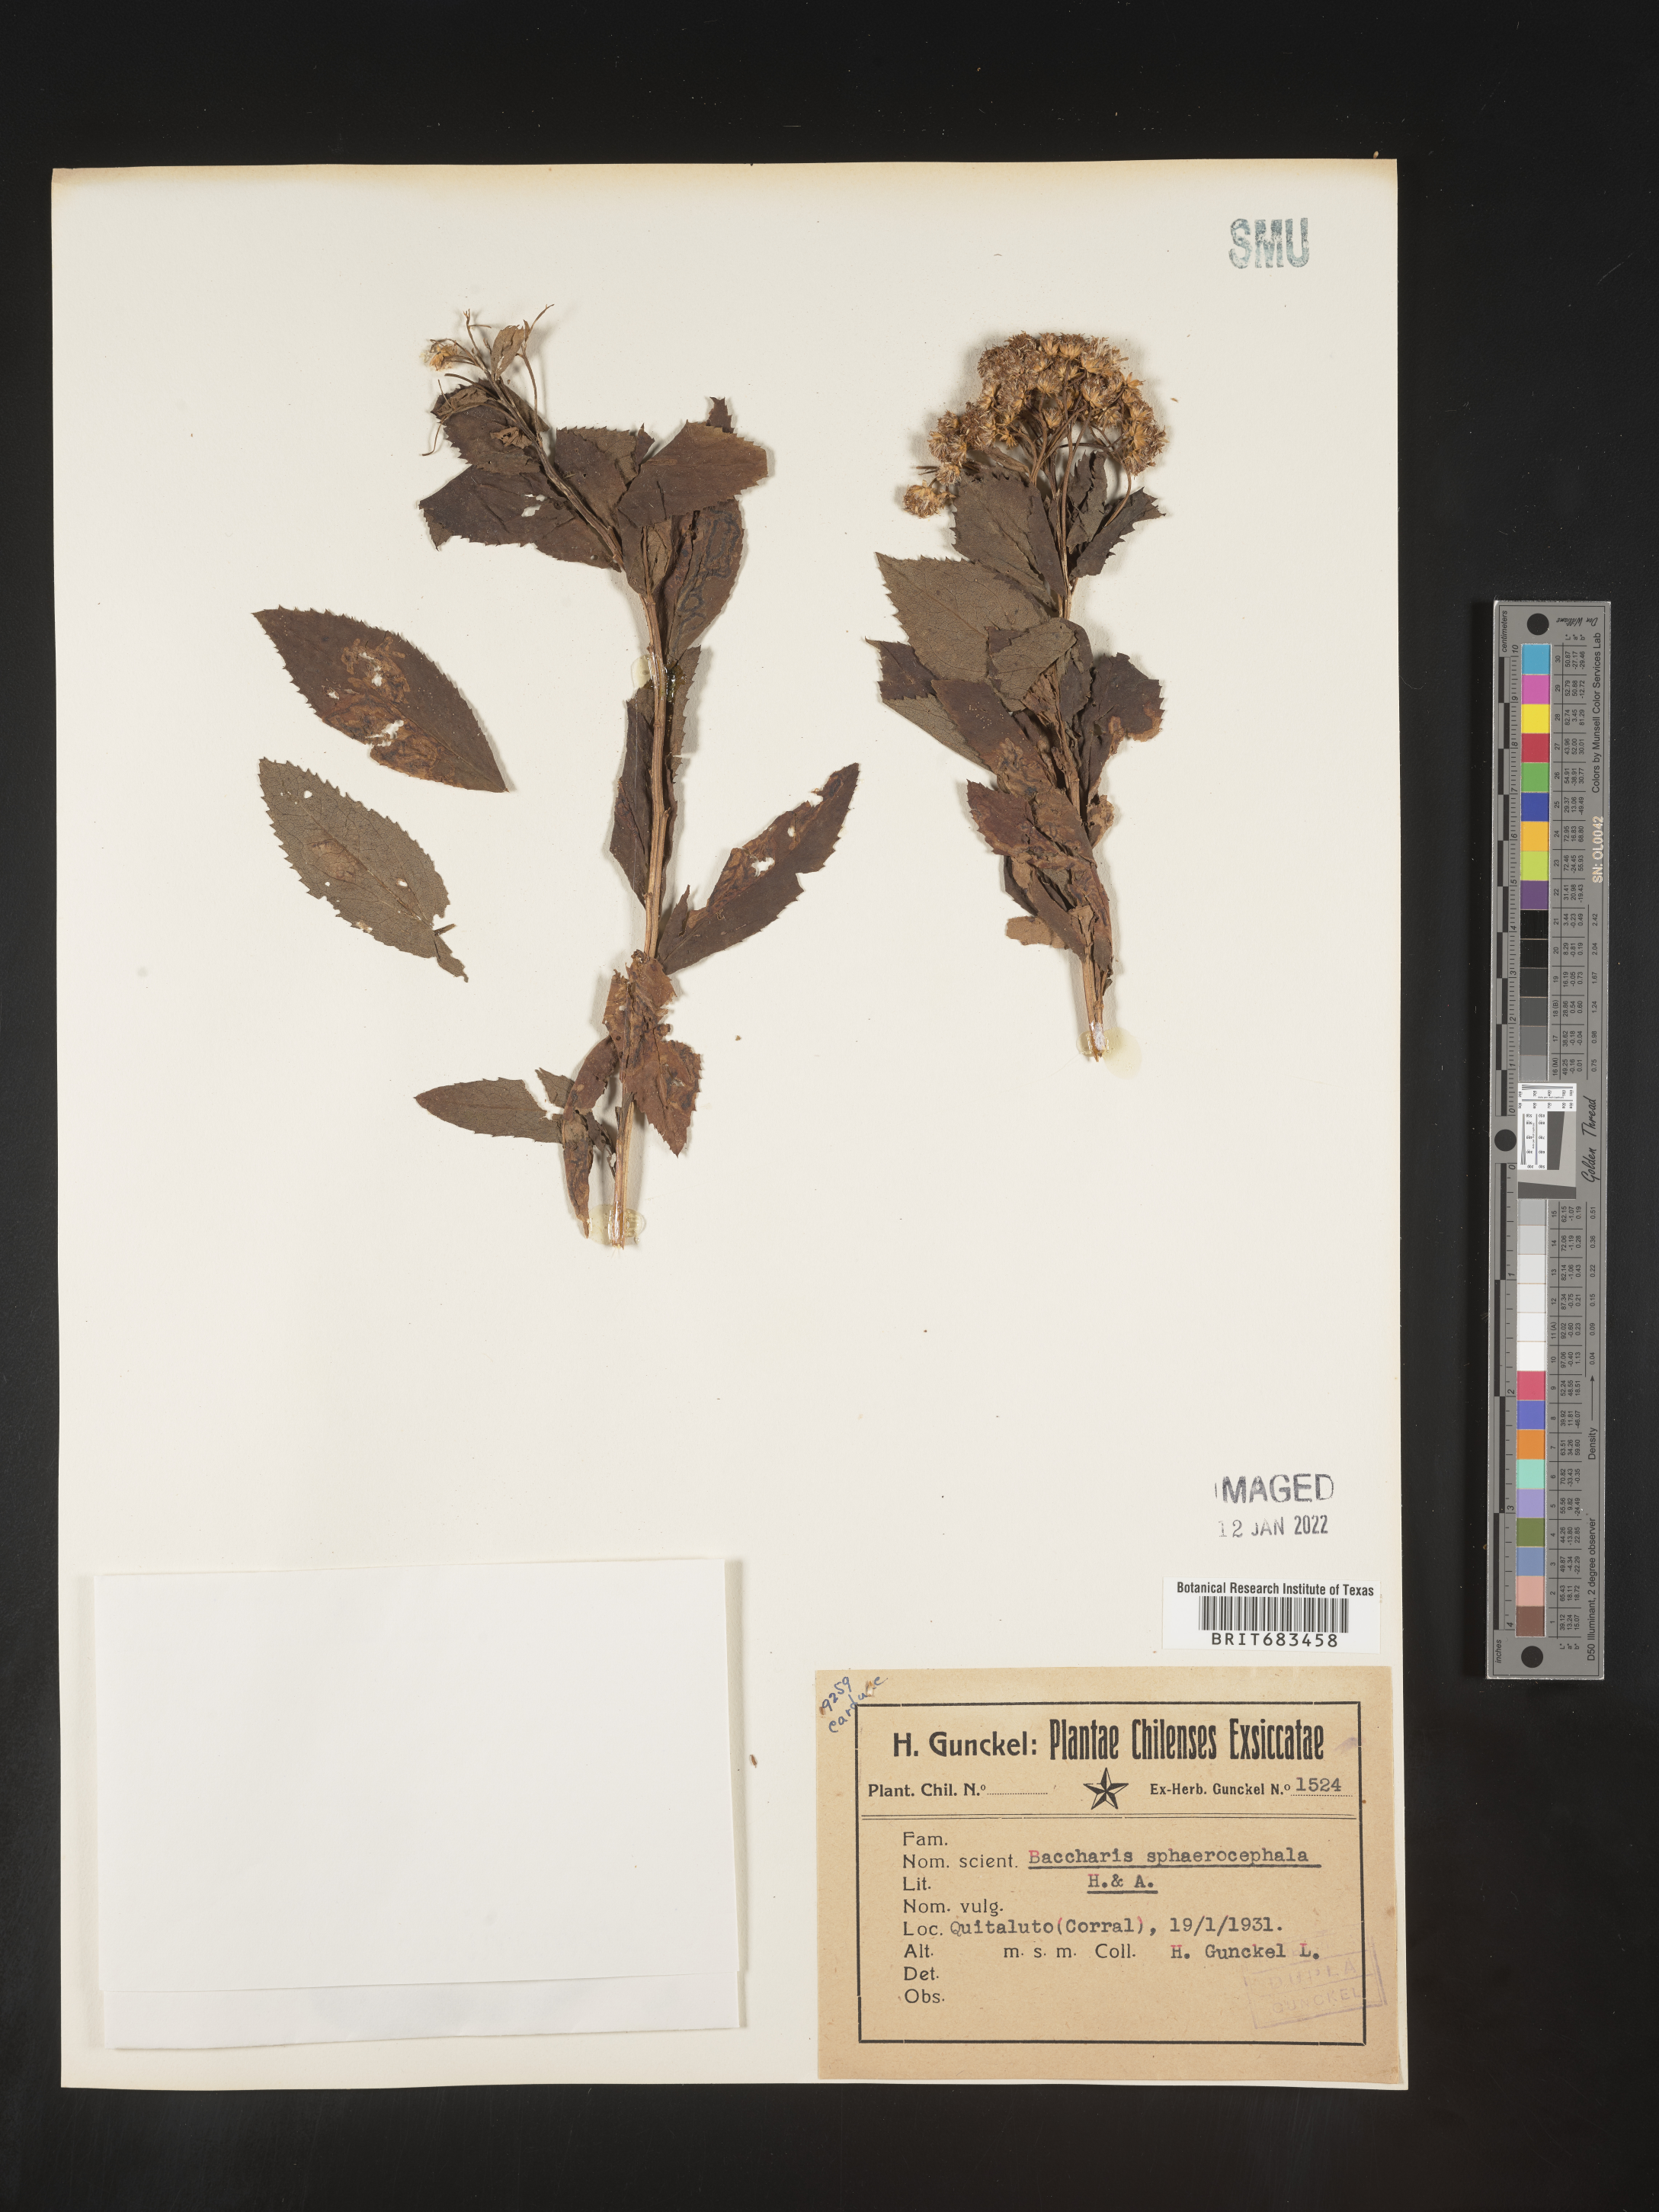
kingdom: Plantae
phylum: Tracheophyta
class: Magnoliopsida
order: Asterales
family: Asteraceae
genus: Baccharis
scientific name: Baccharis
